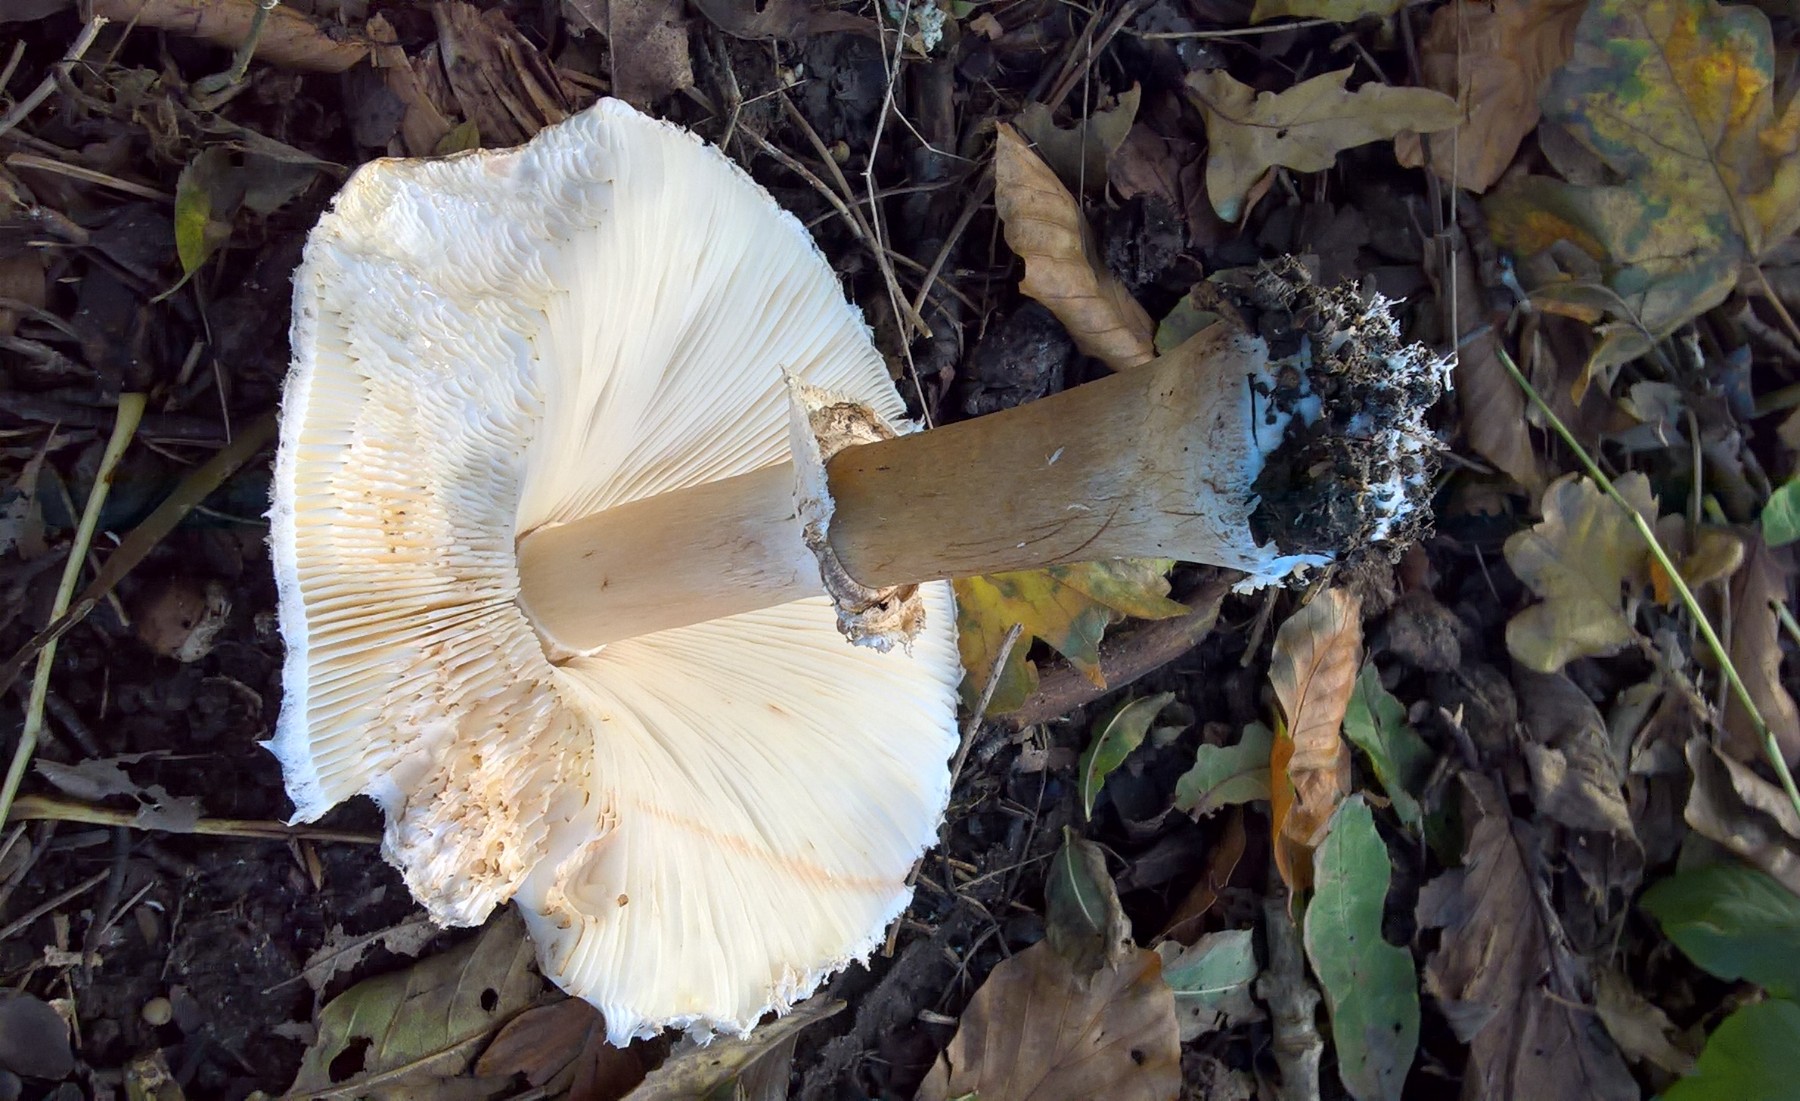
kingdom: Fungi
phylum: Basidiomycota
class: Agaricomycetes
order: Agaricales
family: Agaricaceae
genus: Chlorophyllum
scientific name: Chlorophyllum rhacodes
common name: ægte rabarberhat
